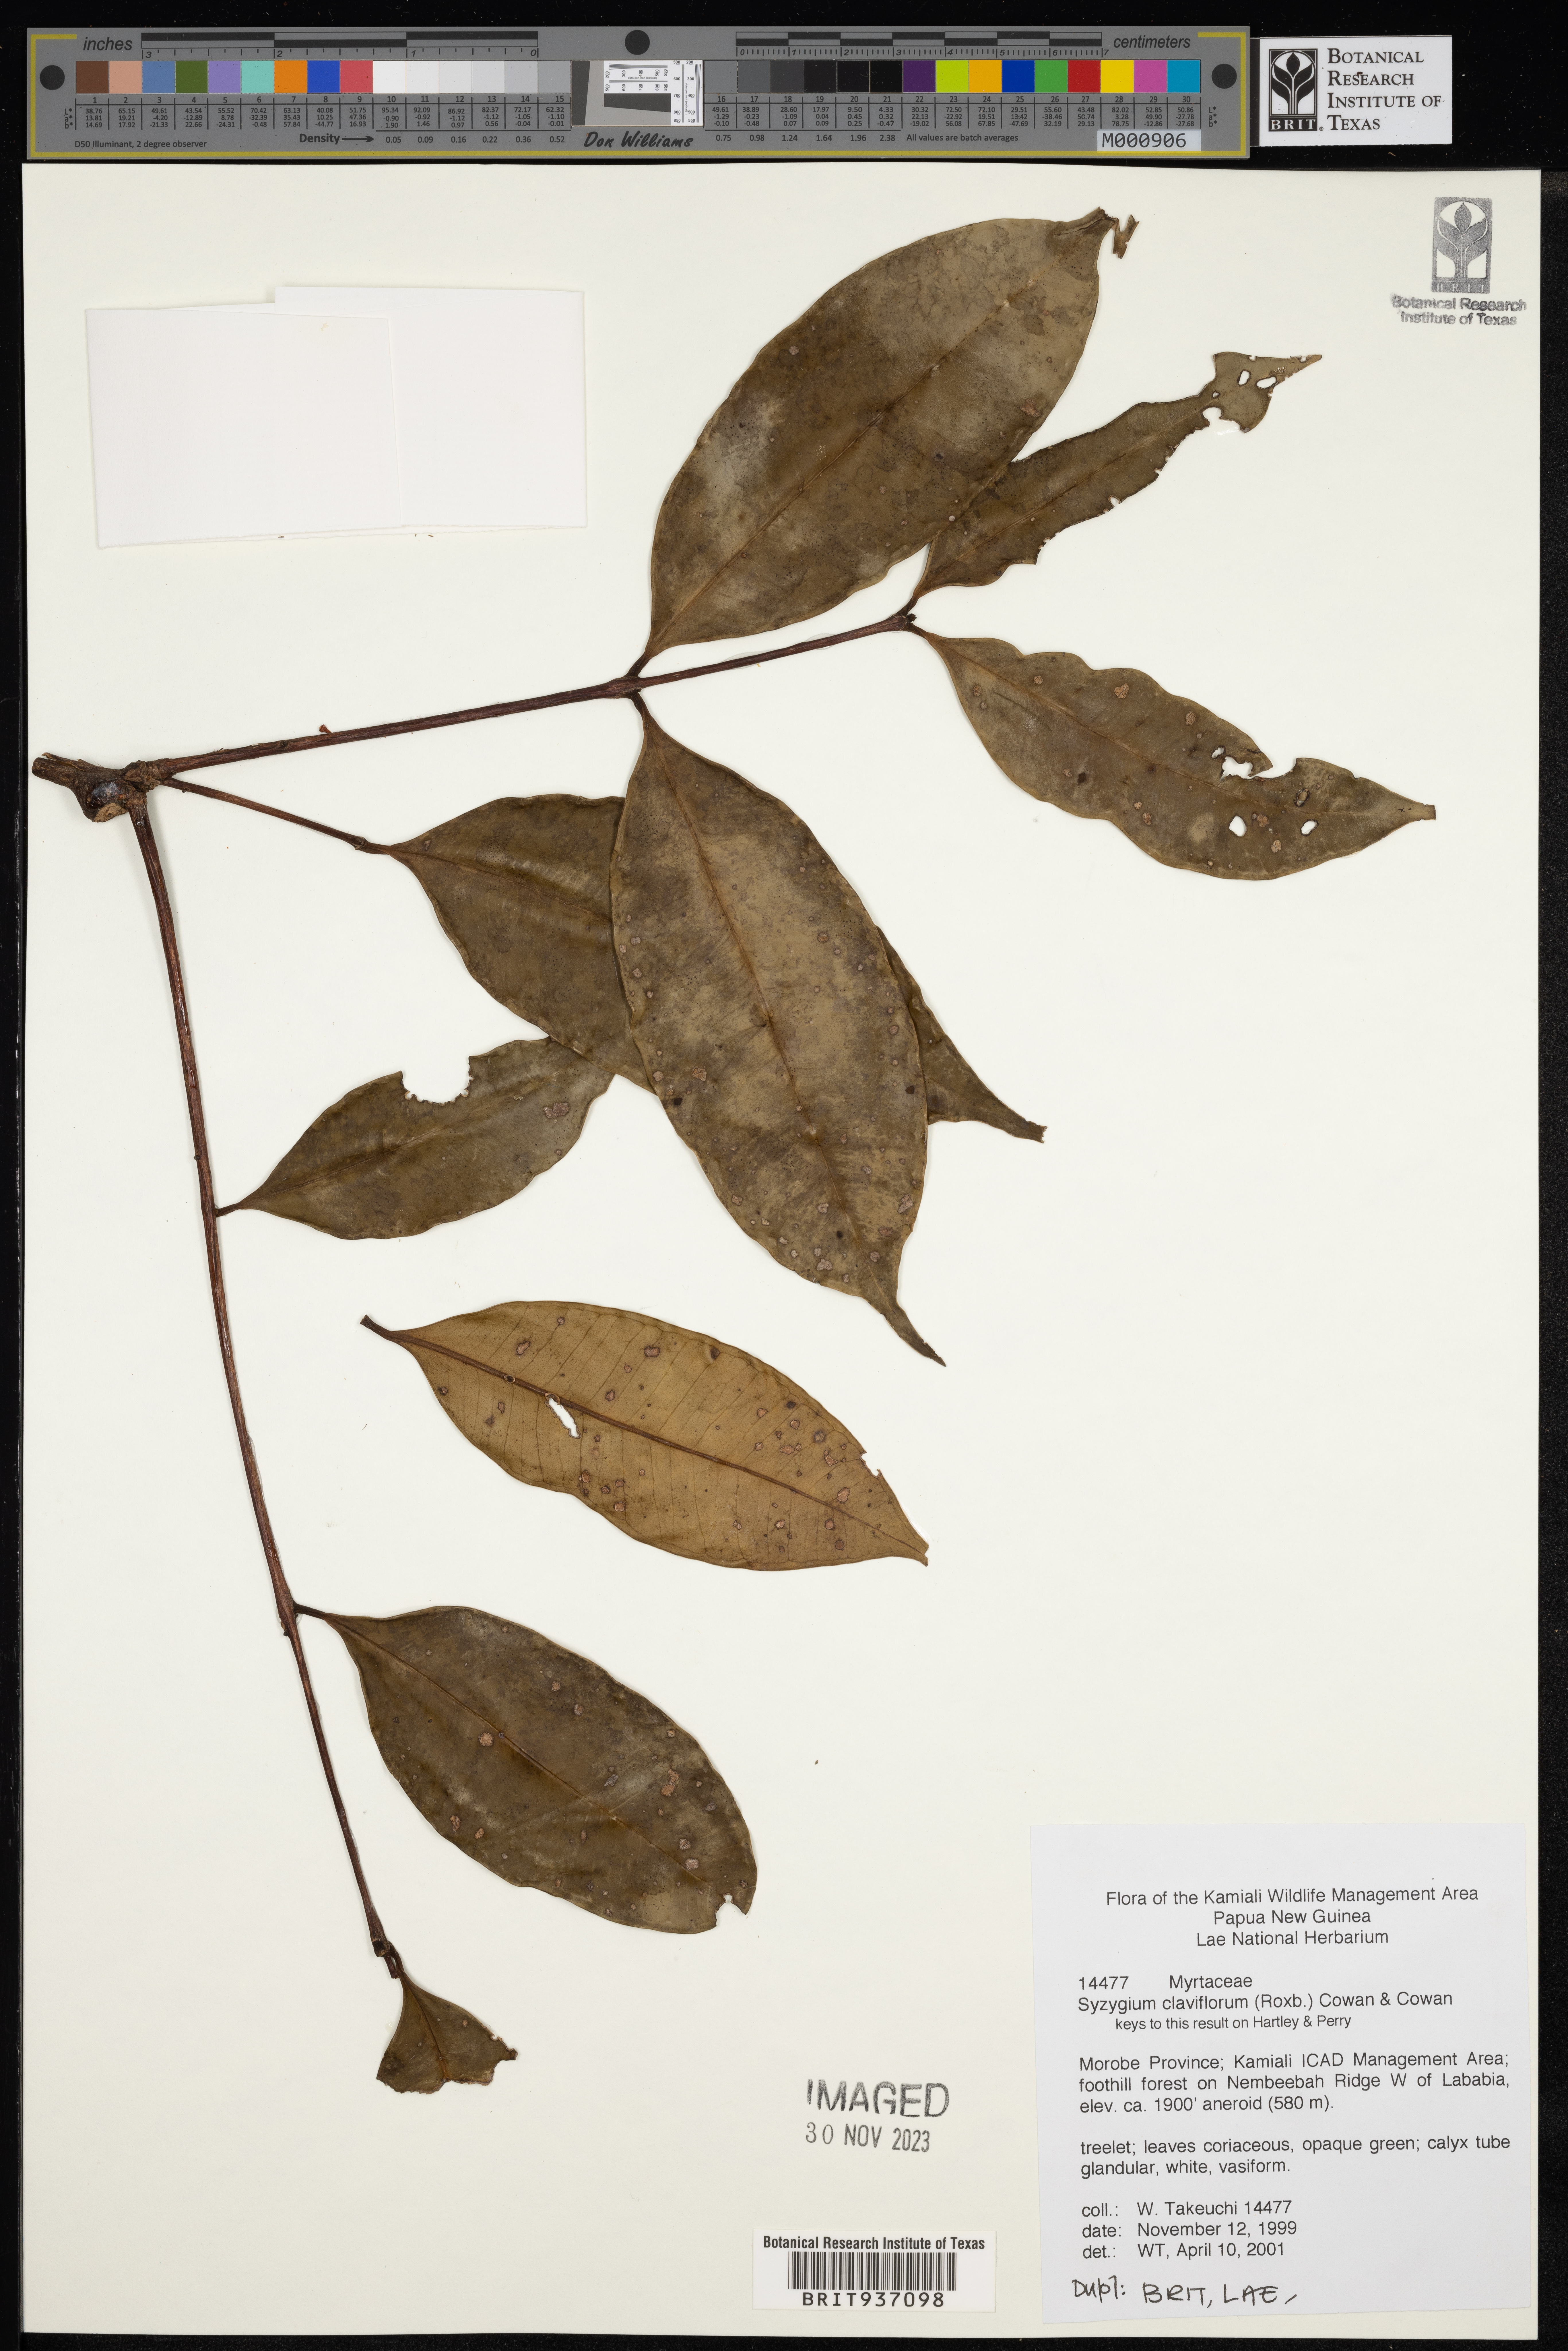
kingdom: Plantae
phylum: Tracheophyta
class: Magnoliopsida
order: Myrtales
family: Myrtaceae
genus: Syzygium
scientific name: Syzygium
